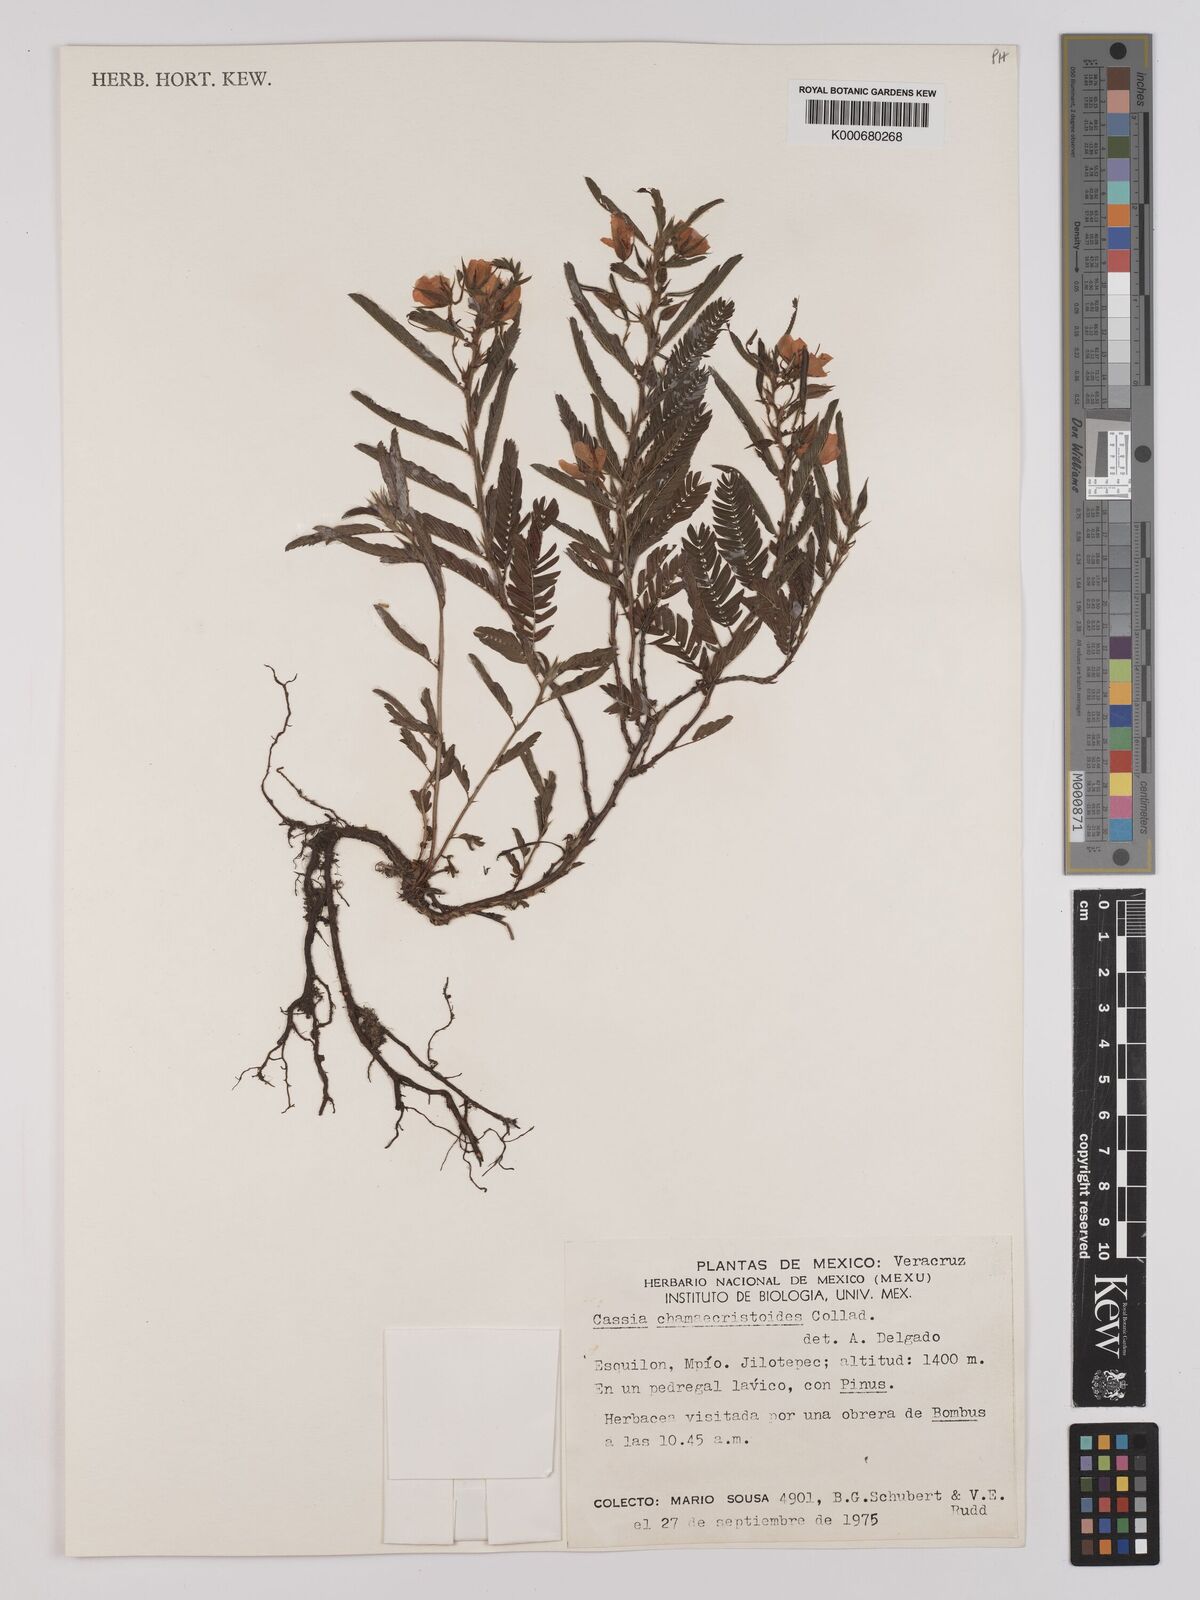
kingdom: Plantae
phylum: Tracheophyta
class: Magnoliopsida
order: Fabales
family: Fabaceae
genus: Chamaecrista
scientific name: Chamaecrista chamaecristoides
